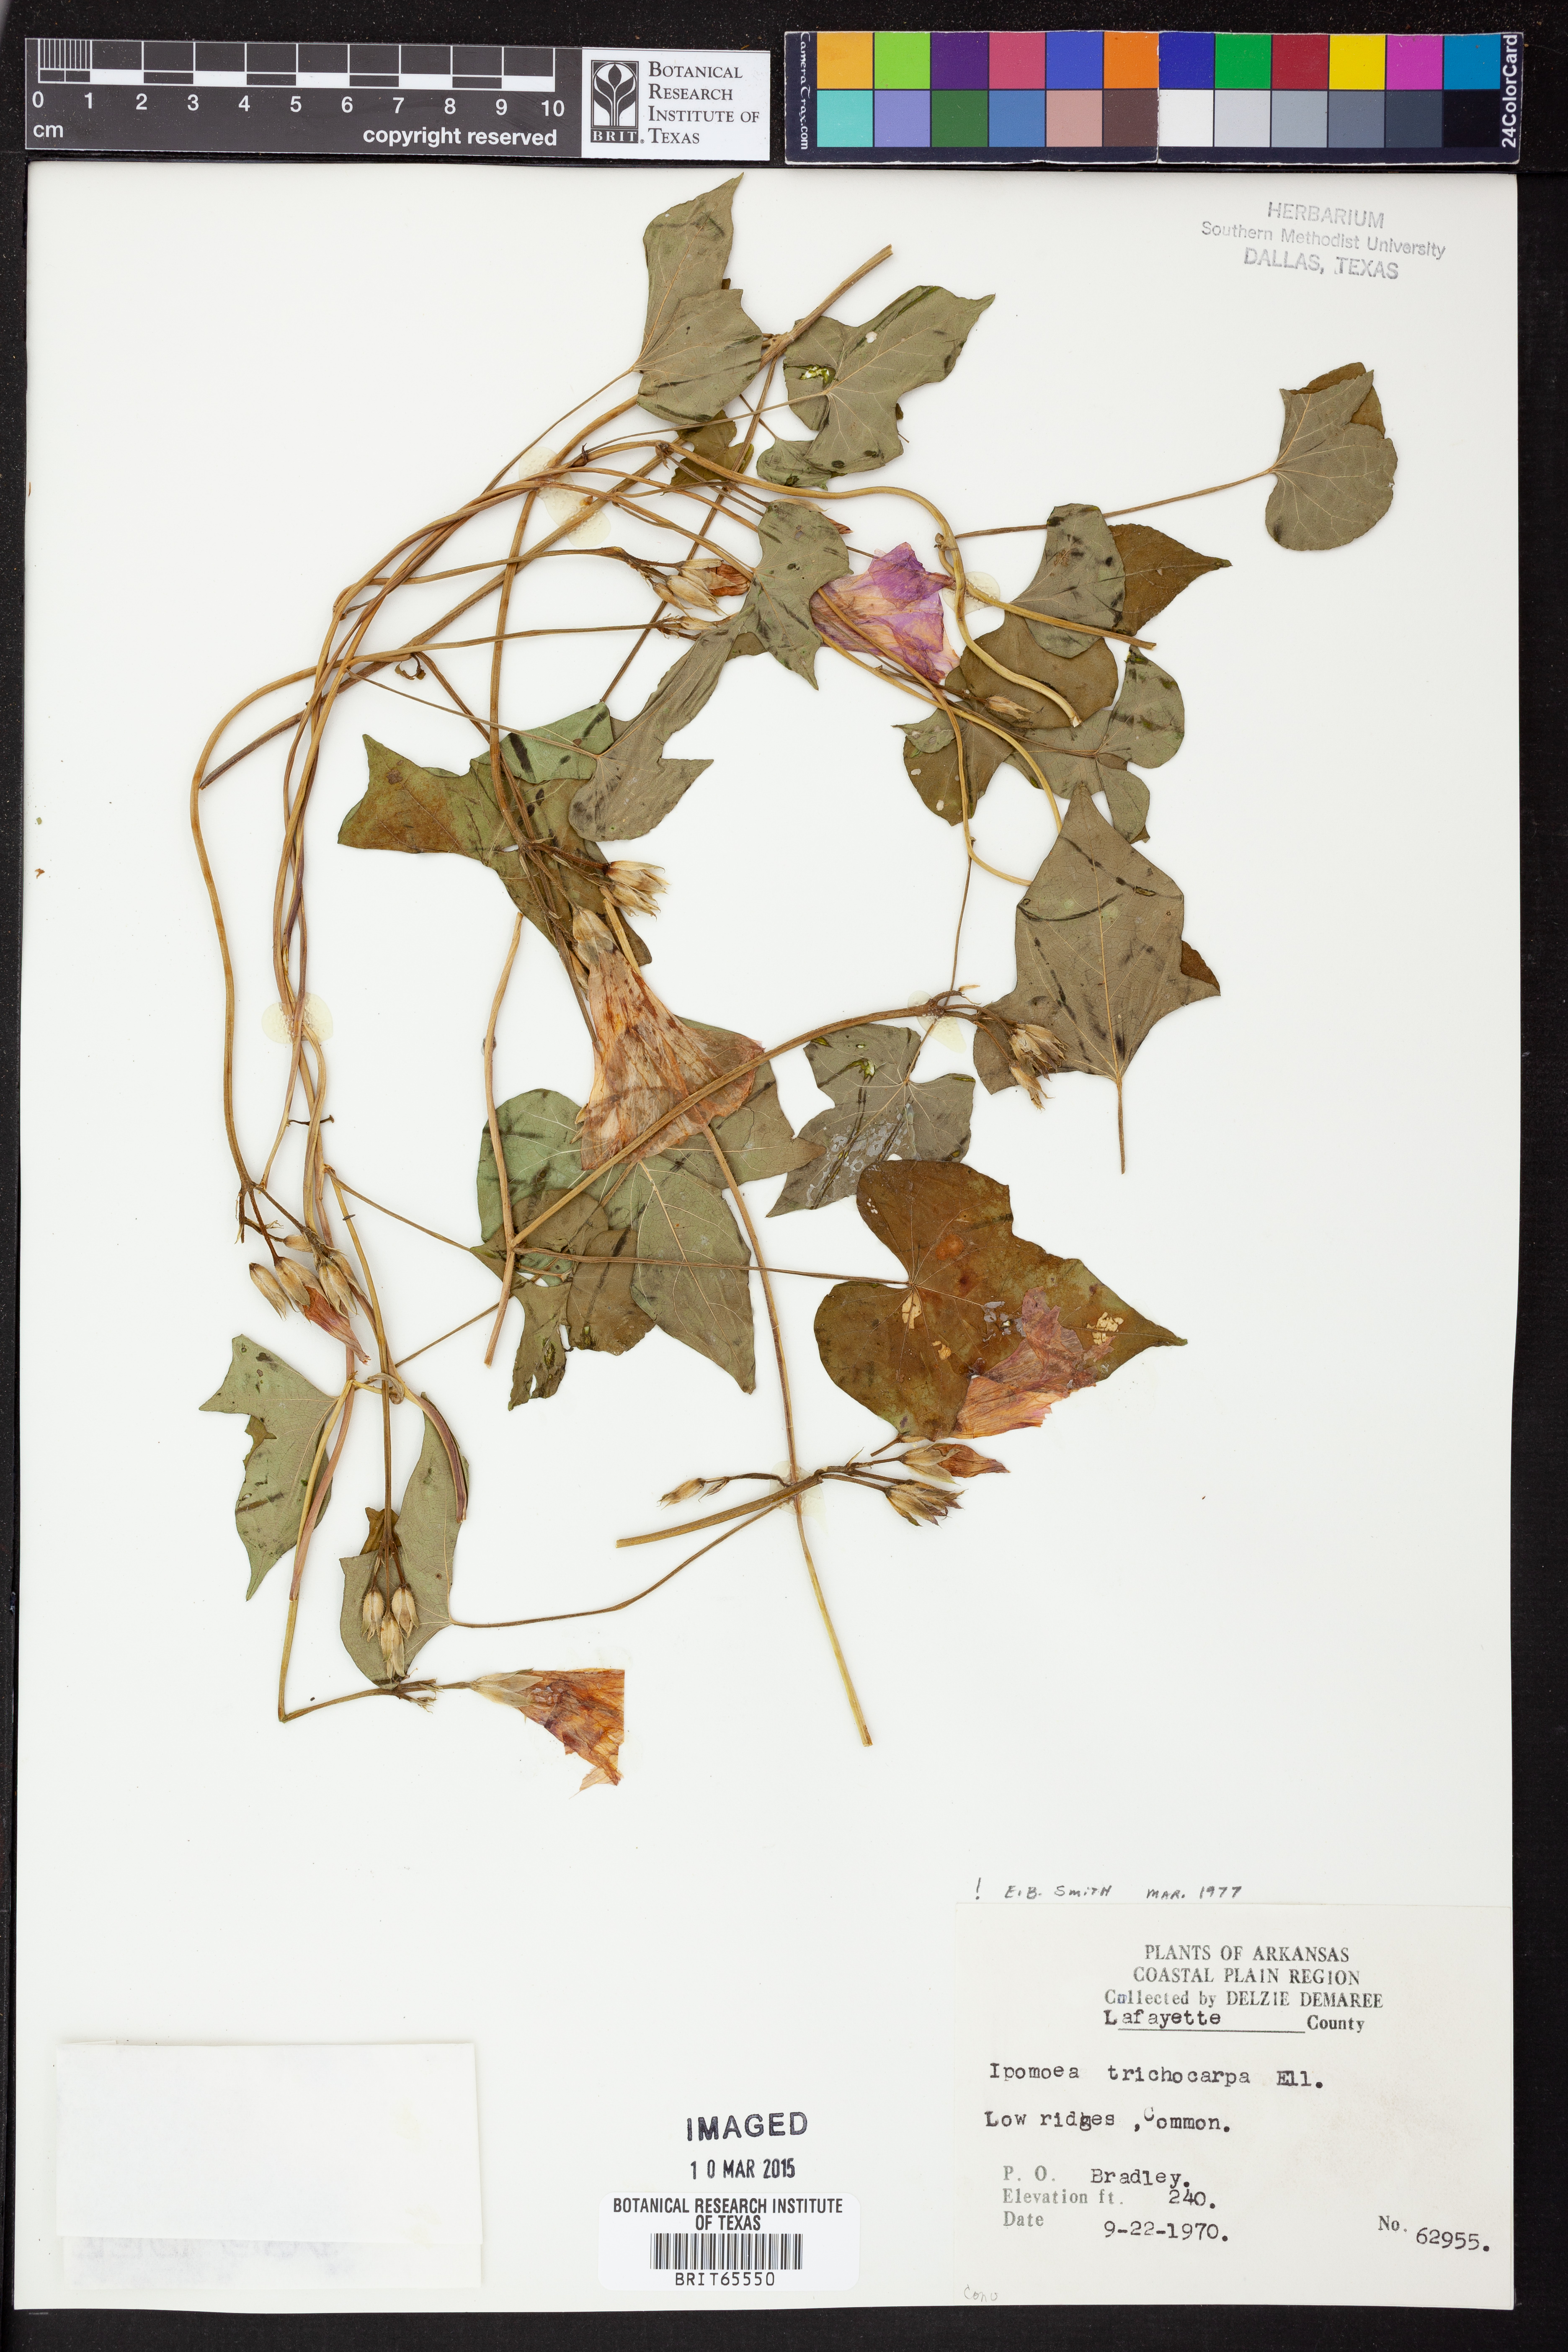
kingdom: Plantae
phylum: Tracheophyta
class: Magnoliopsida
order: Solanales
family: Convolvulaceae
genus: Ipomoea
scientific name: Ipomoea cordatotriloba
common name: Cotton morning glory
